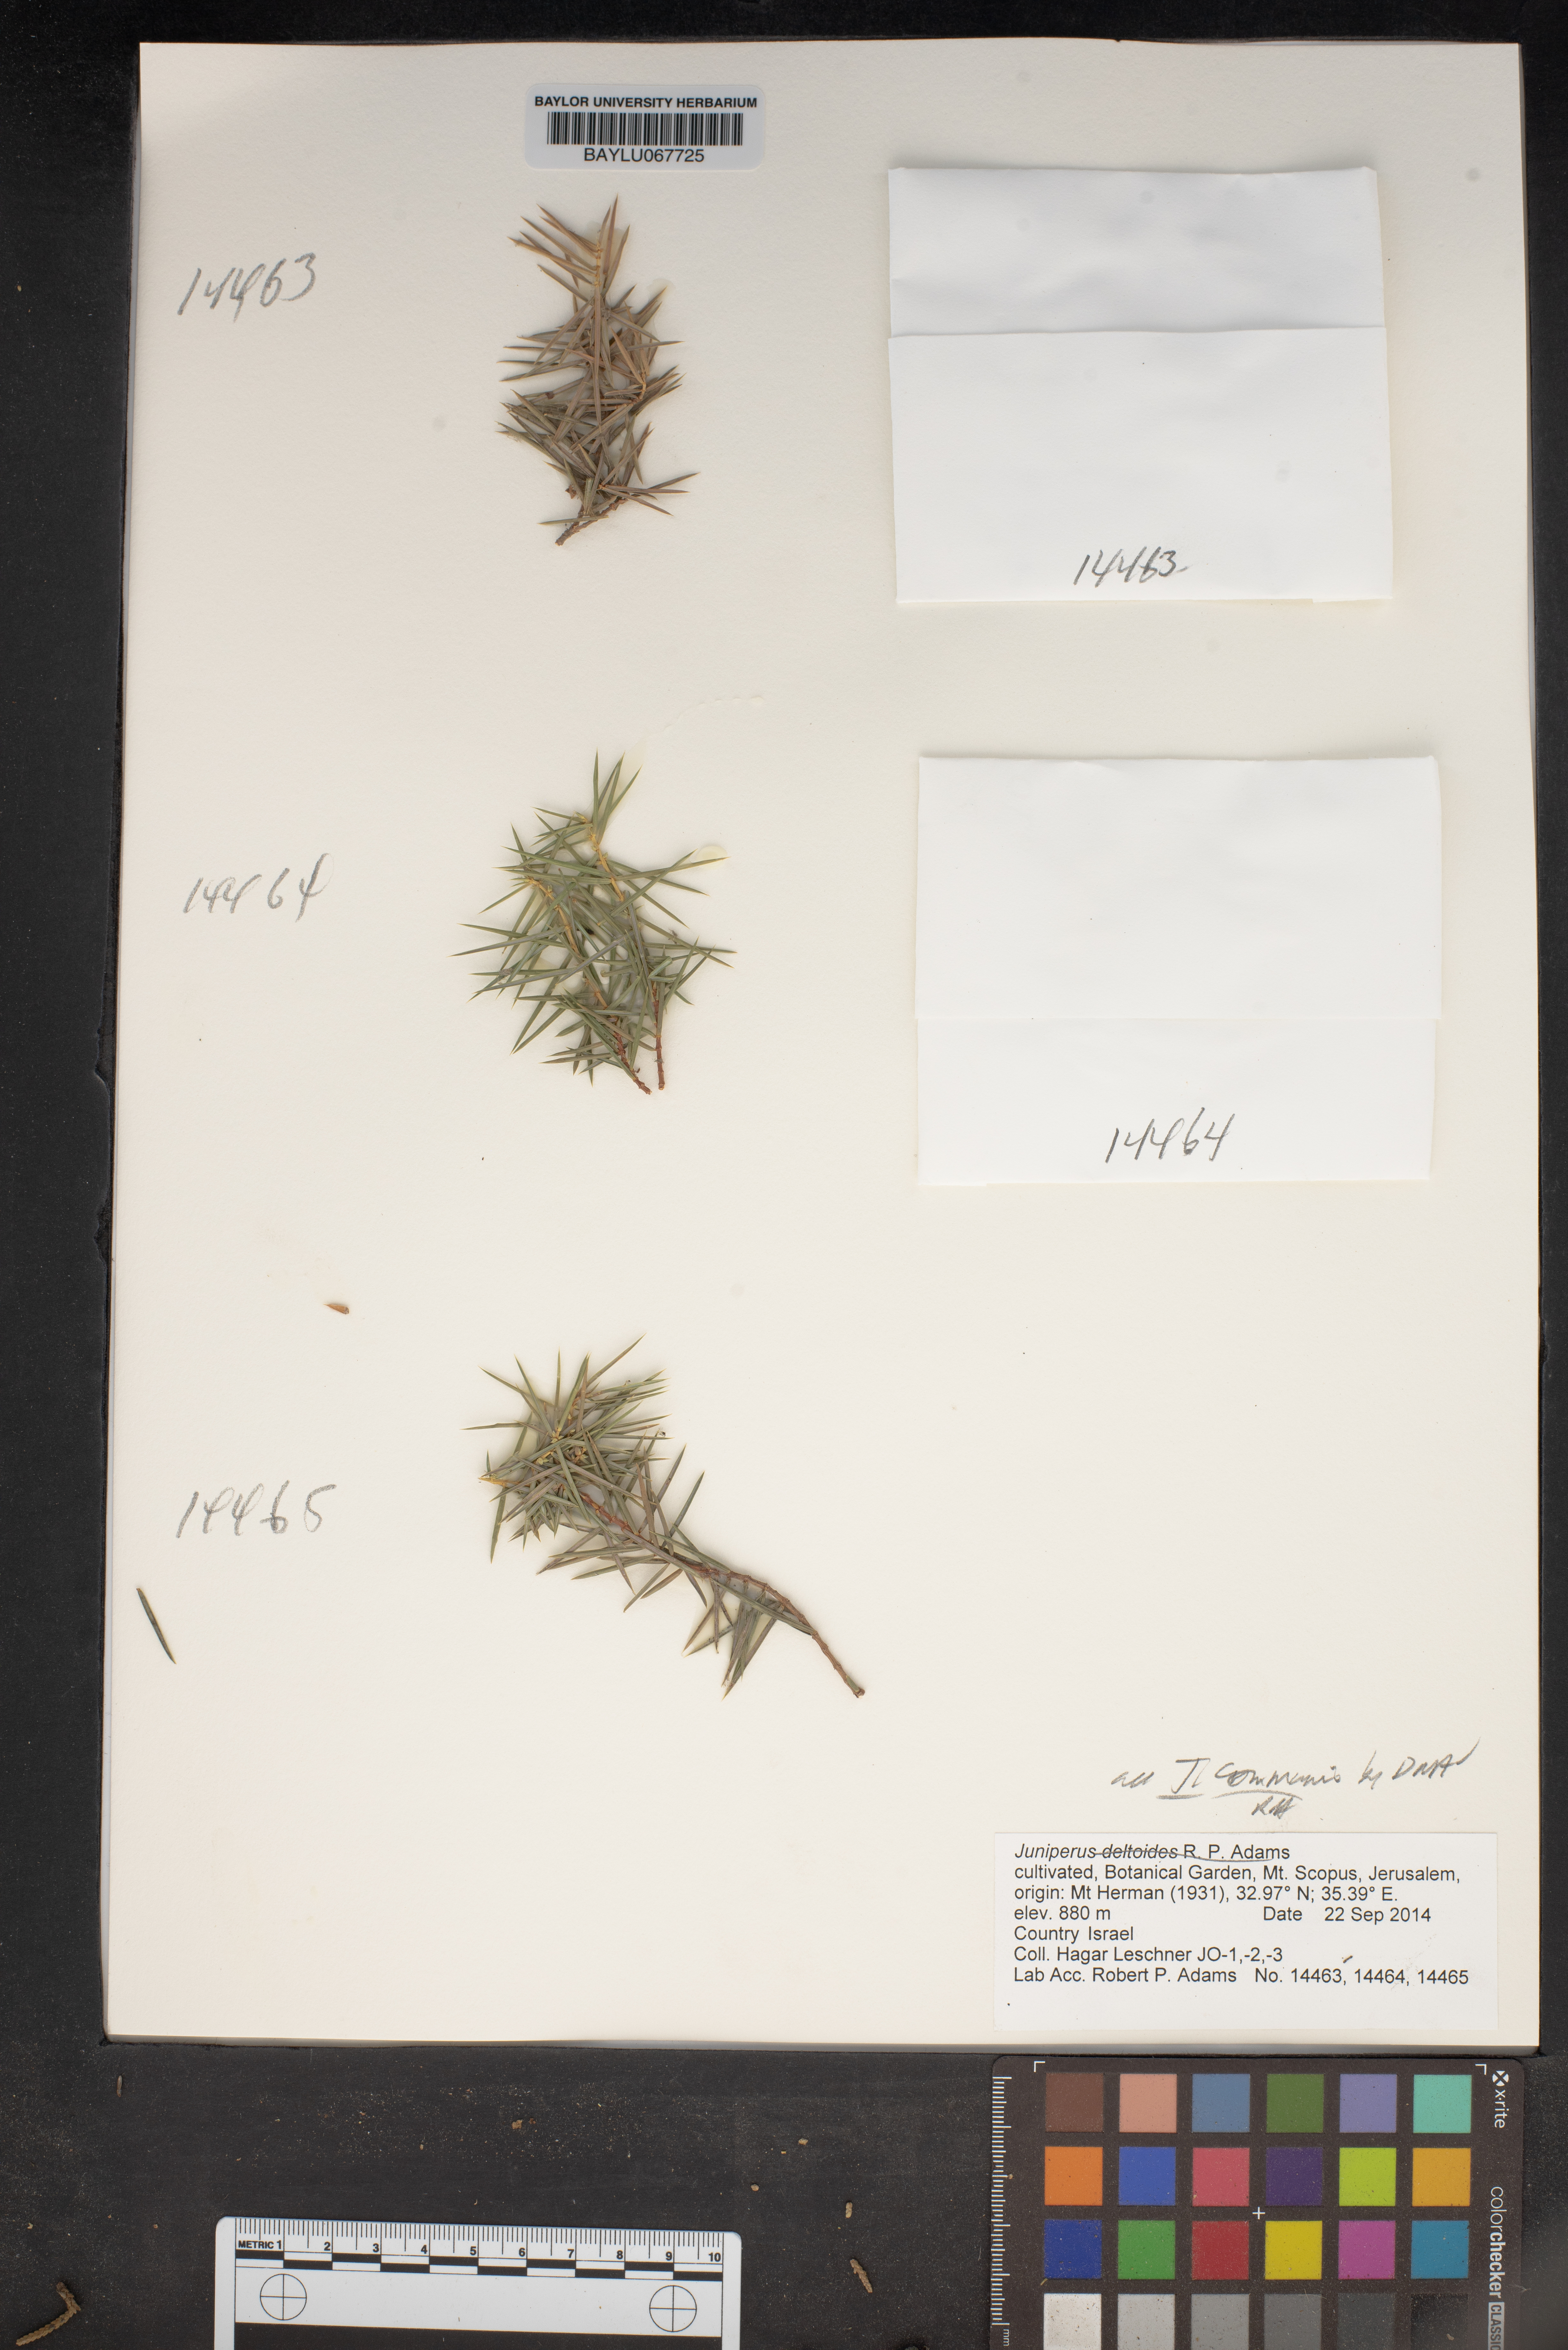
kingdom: Plantae
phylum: Tracheophyta
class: Pinopsida
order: Pinales
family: Cupressaceae
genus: Juniperus
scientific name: Juniperus communis
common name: Common juniper
